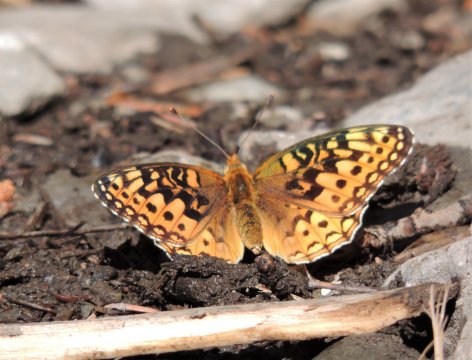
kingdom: Animalia
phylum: Arthropoda
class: Insecta
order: Lepidoptera
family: Nymphalidae
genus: Speyeria
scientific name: Speyeria zerene
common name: Zerene Fritillary
